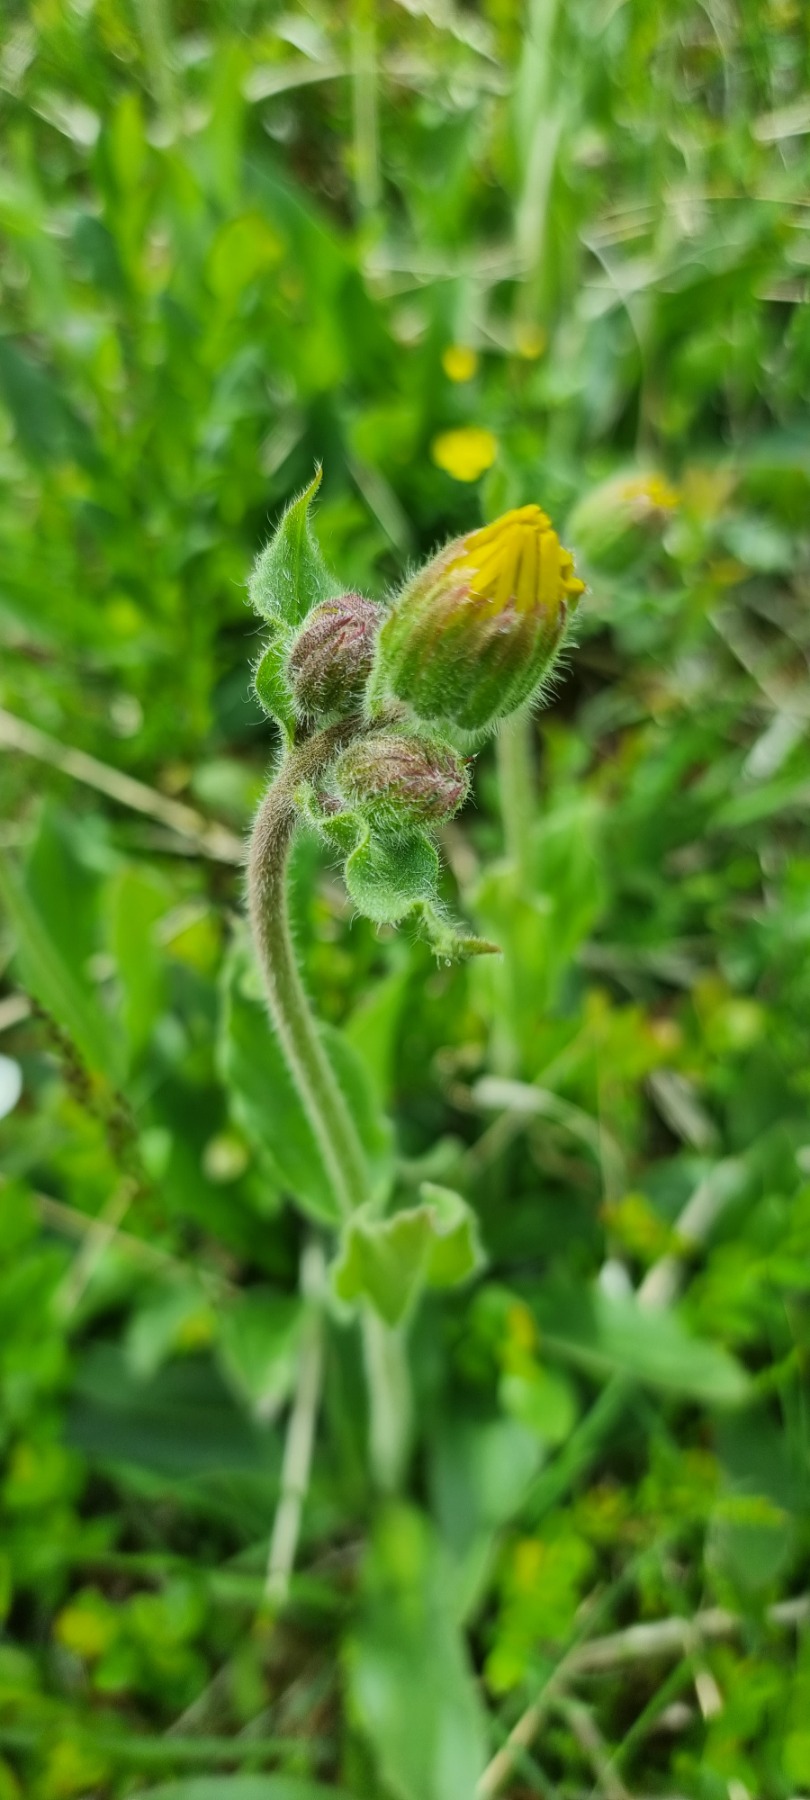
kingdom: Plantae
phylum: Tracheophyta
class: Magnoliopsida
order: Asterales
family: Asteraceae
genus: Arnica
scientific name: Arnica montana
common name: Guldblomme
